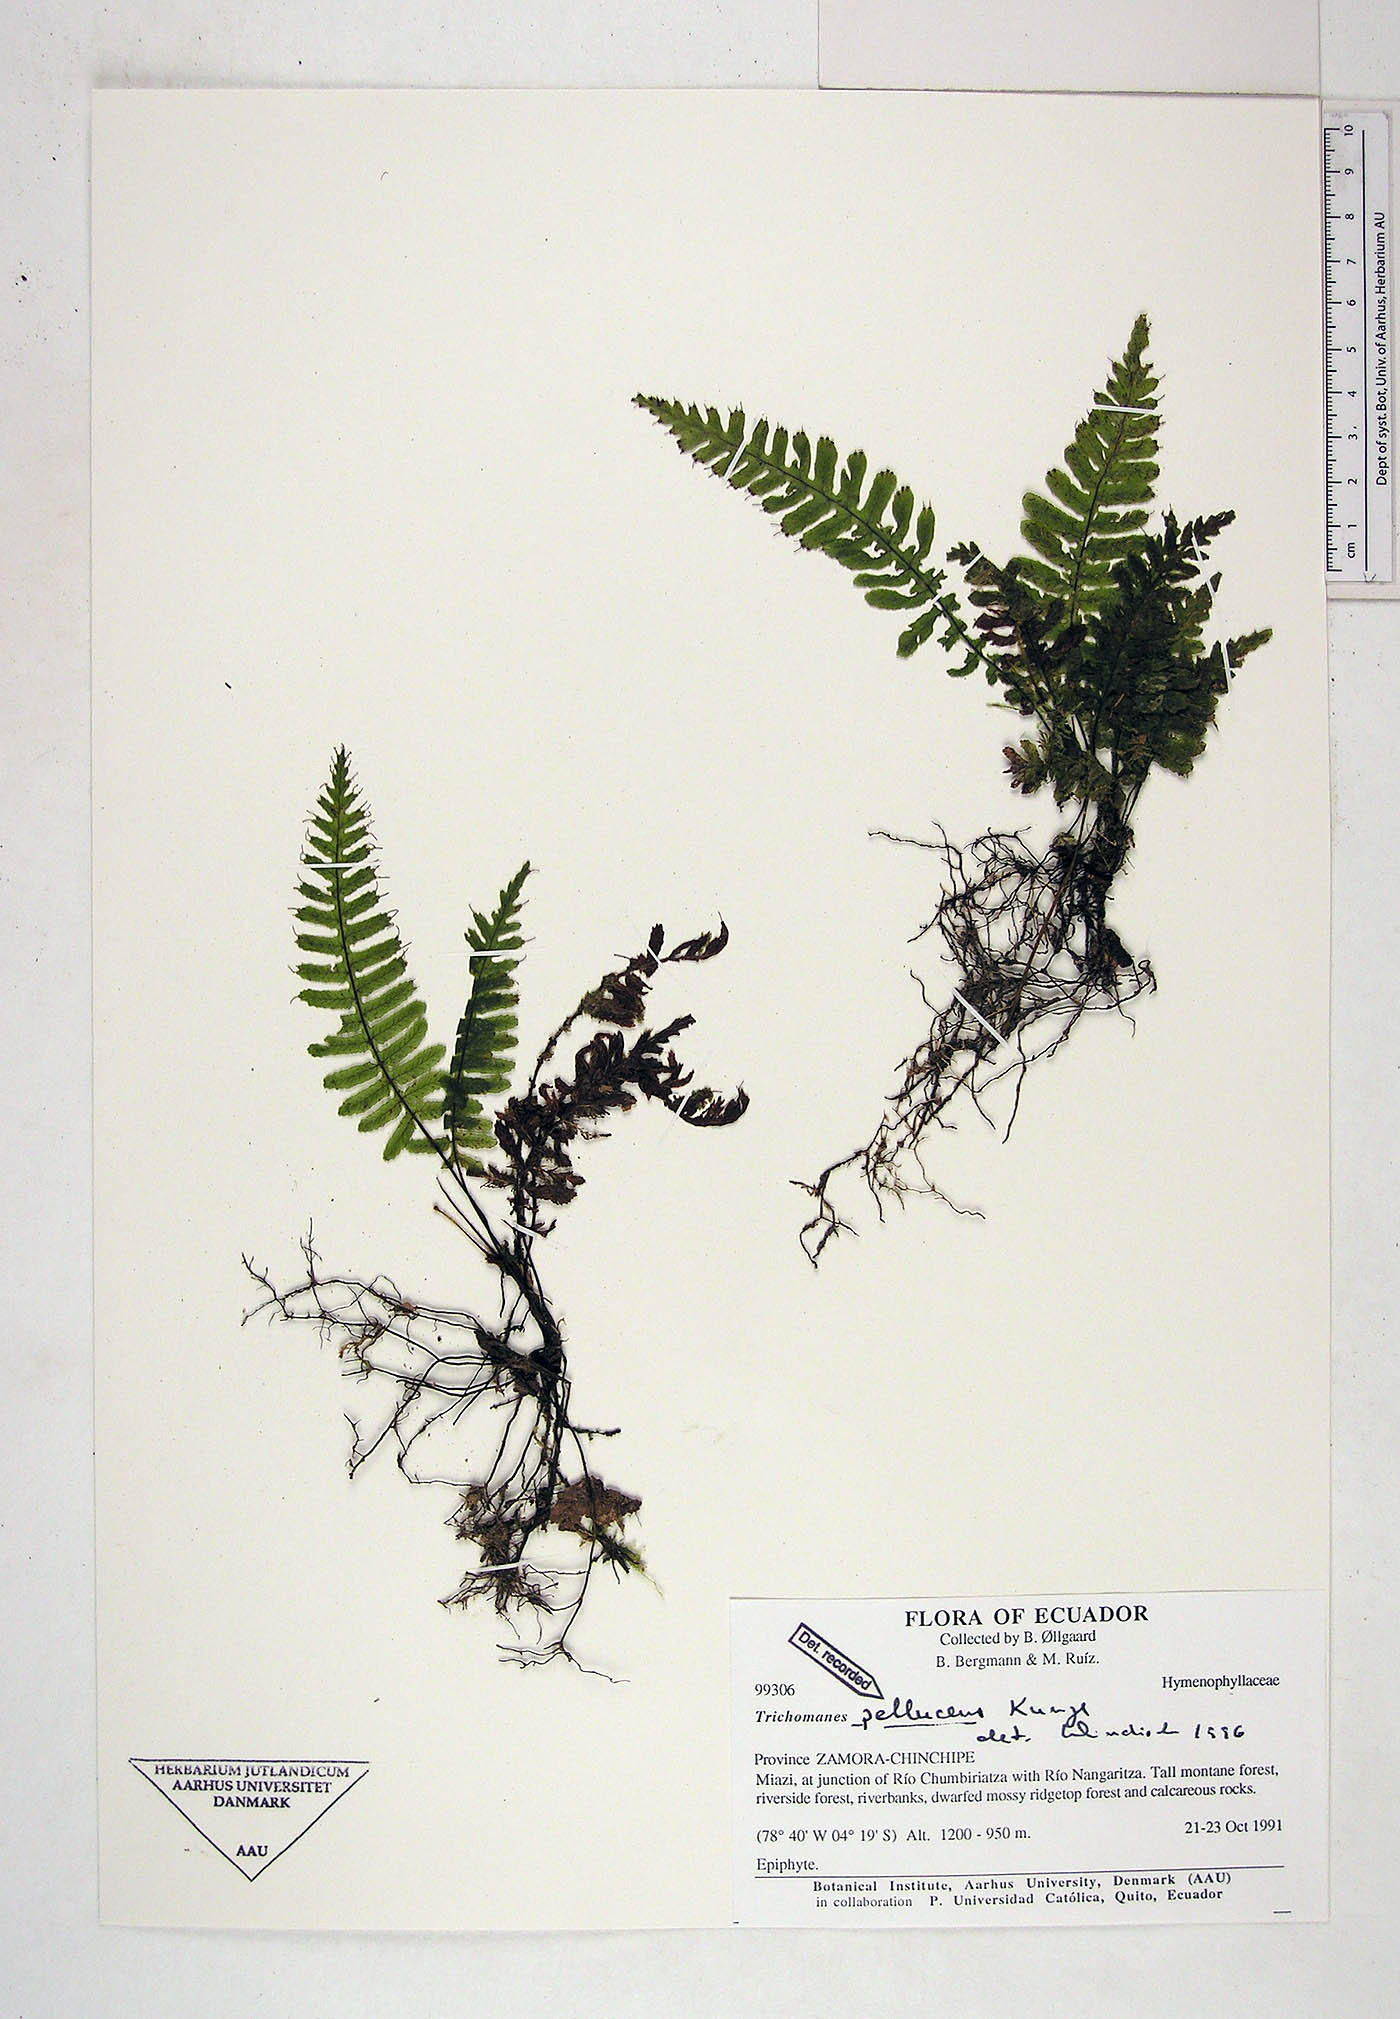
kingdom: Plantae
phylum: Tracheophyta
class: Polypodiopsida
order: Hymenophyllales
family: Hymenophyllaceae
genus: Trichomanes
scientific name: Trichomanes pellucens
